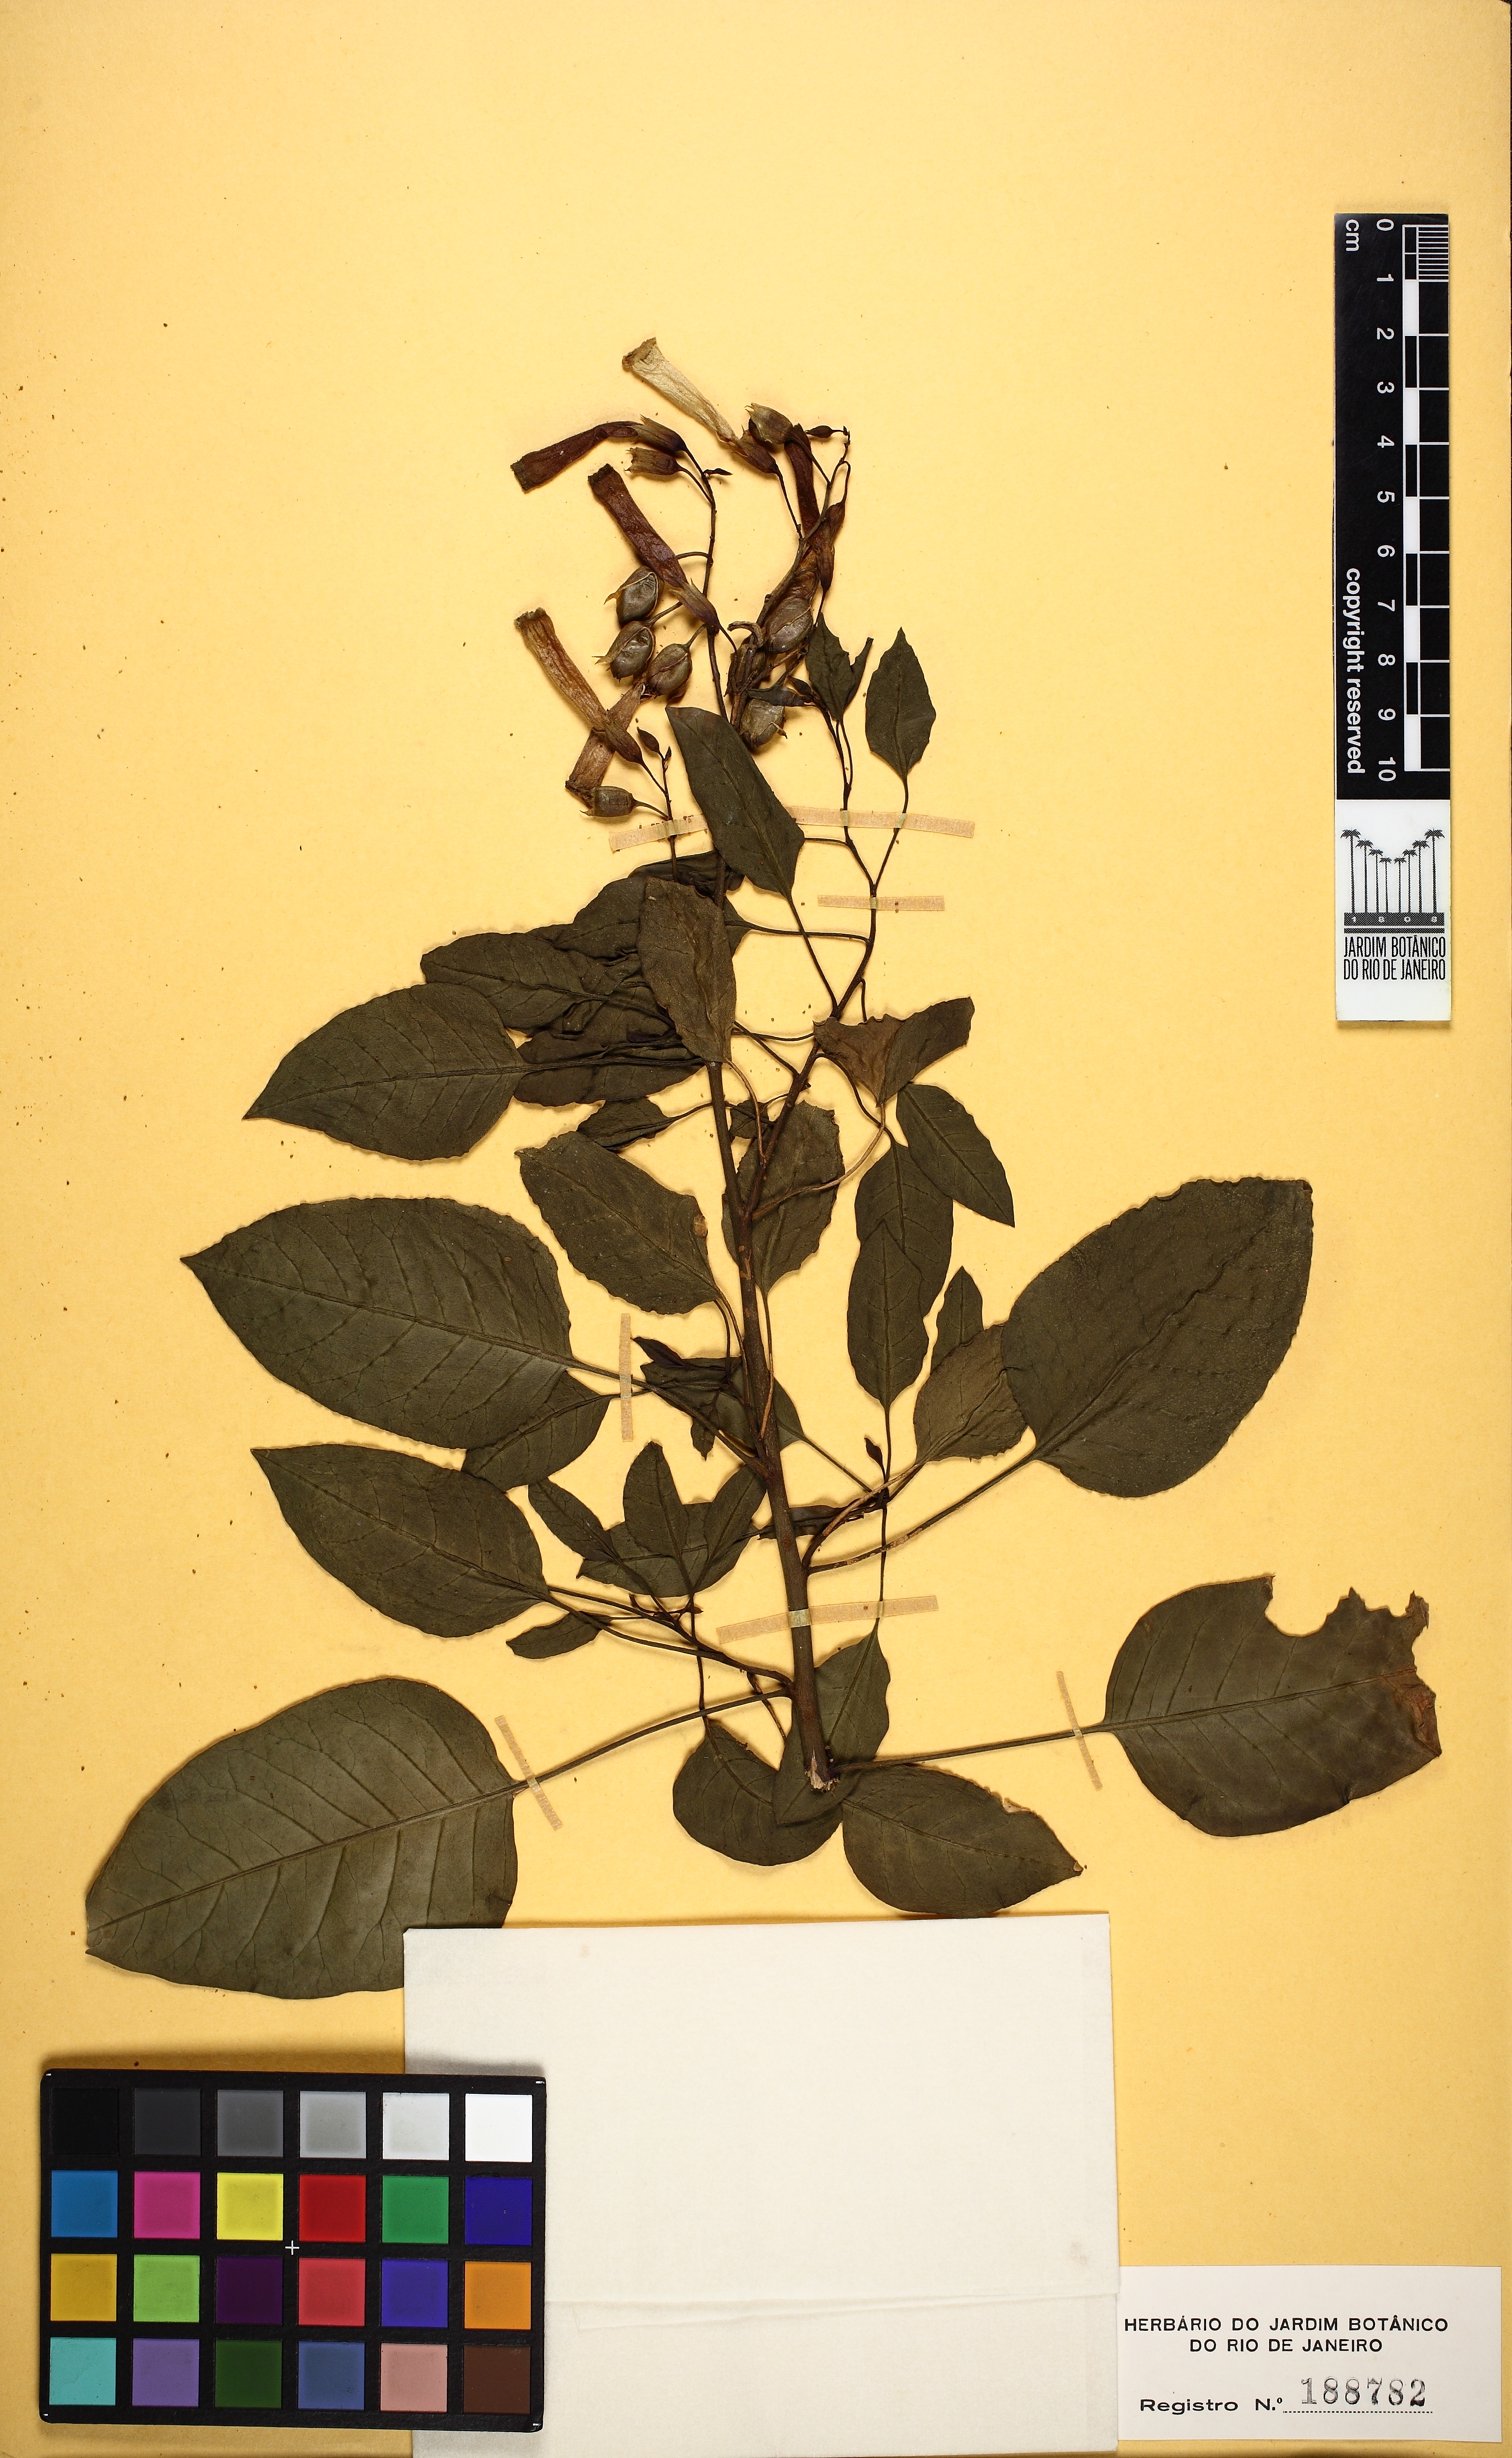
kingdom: Plantae
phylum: Tracheophyta
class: Magnoliopsida
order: Solanales
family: Solanaceae
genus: Nicotiana
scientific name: Nicotiana glauca
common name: Tree tobacco
